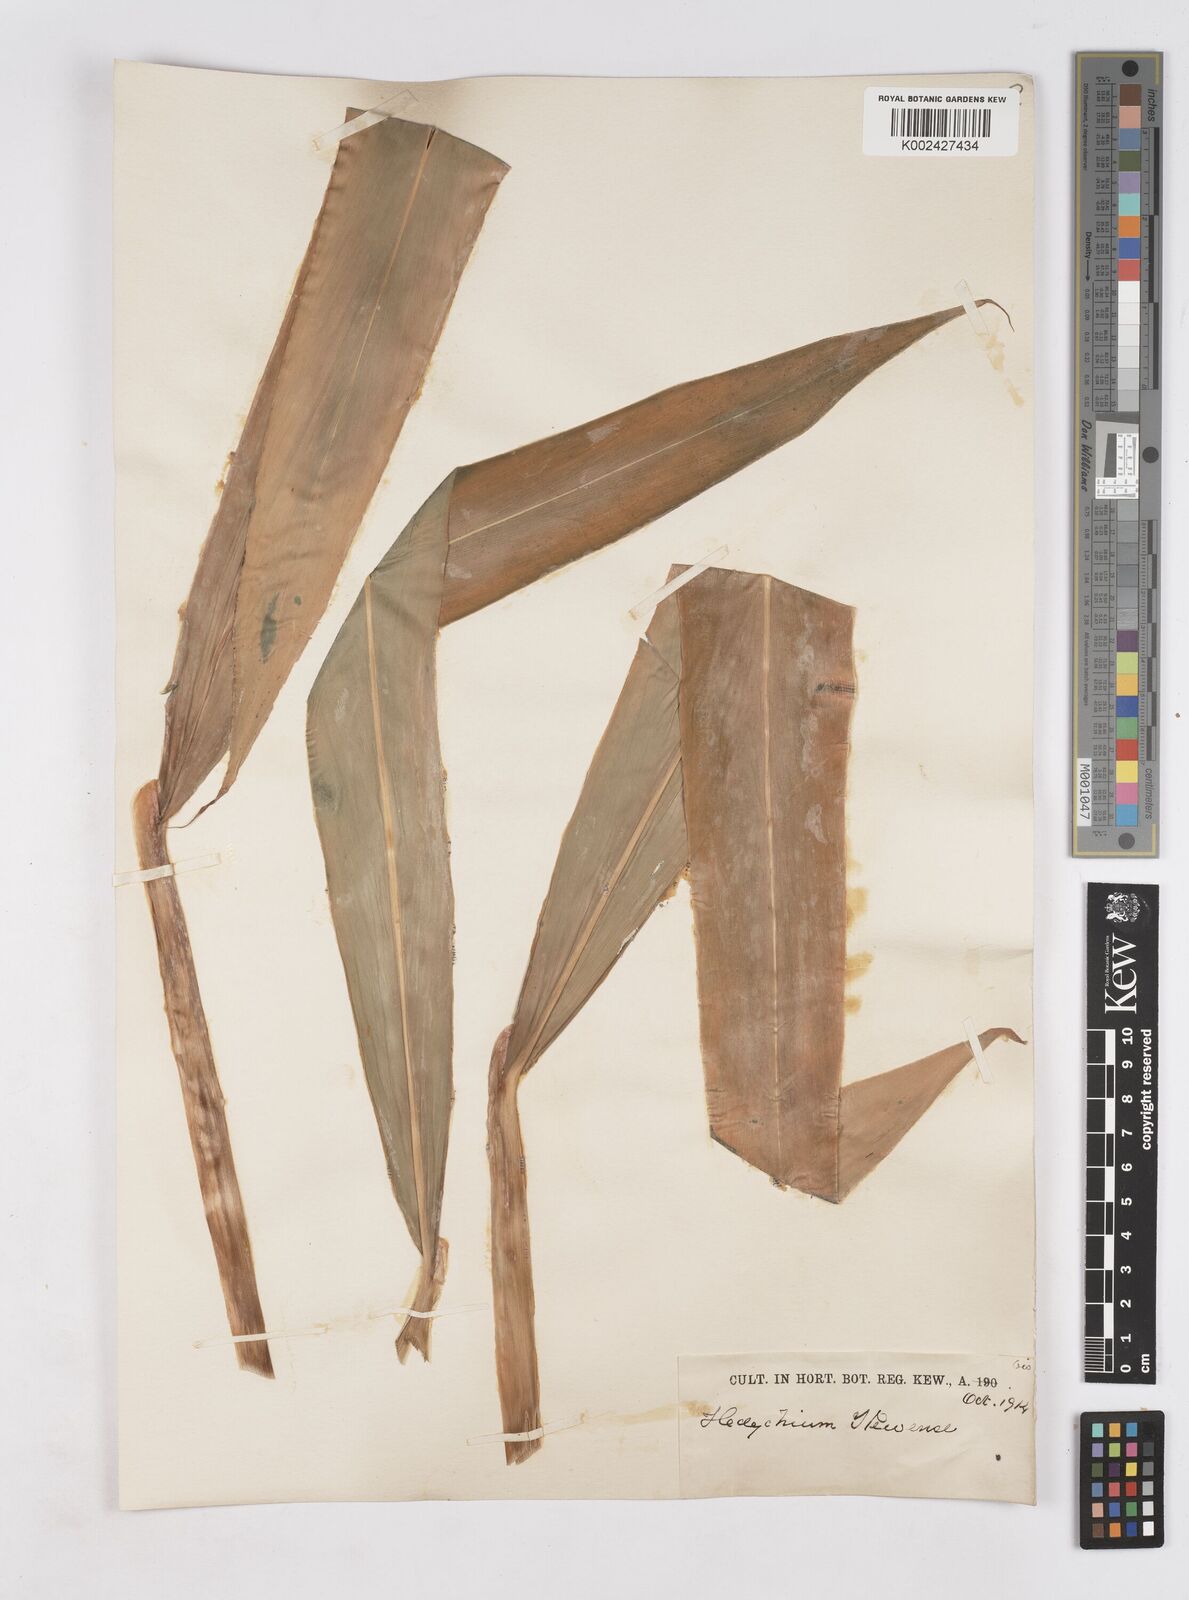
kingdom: Plantae
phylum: Tracheophyta
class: Liliopsida
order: Zingiberales
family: Zingiberaceae
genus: Hedychium
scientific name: Hedychium
